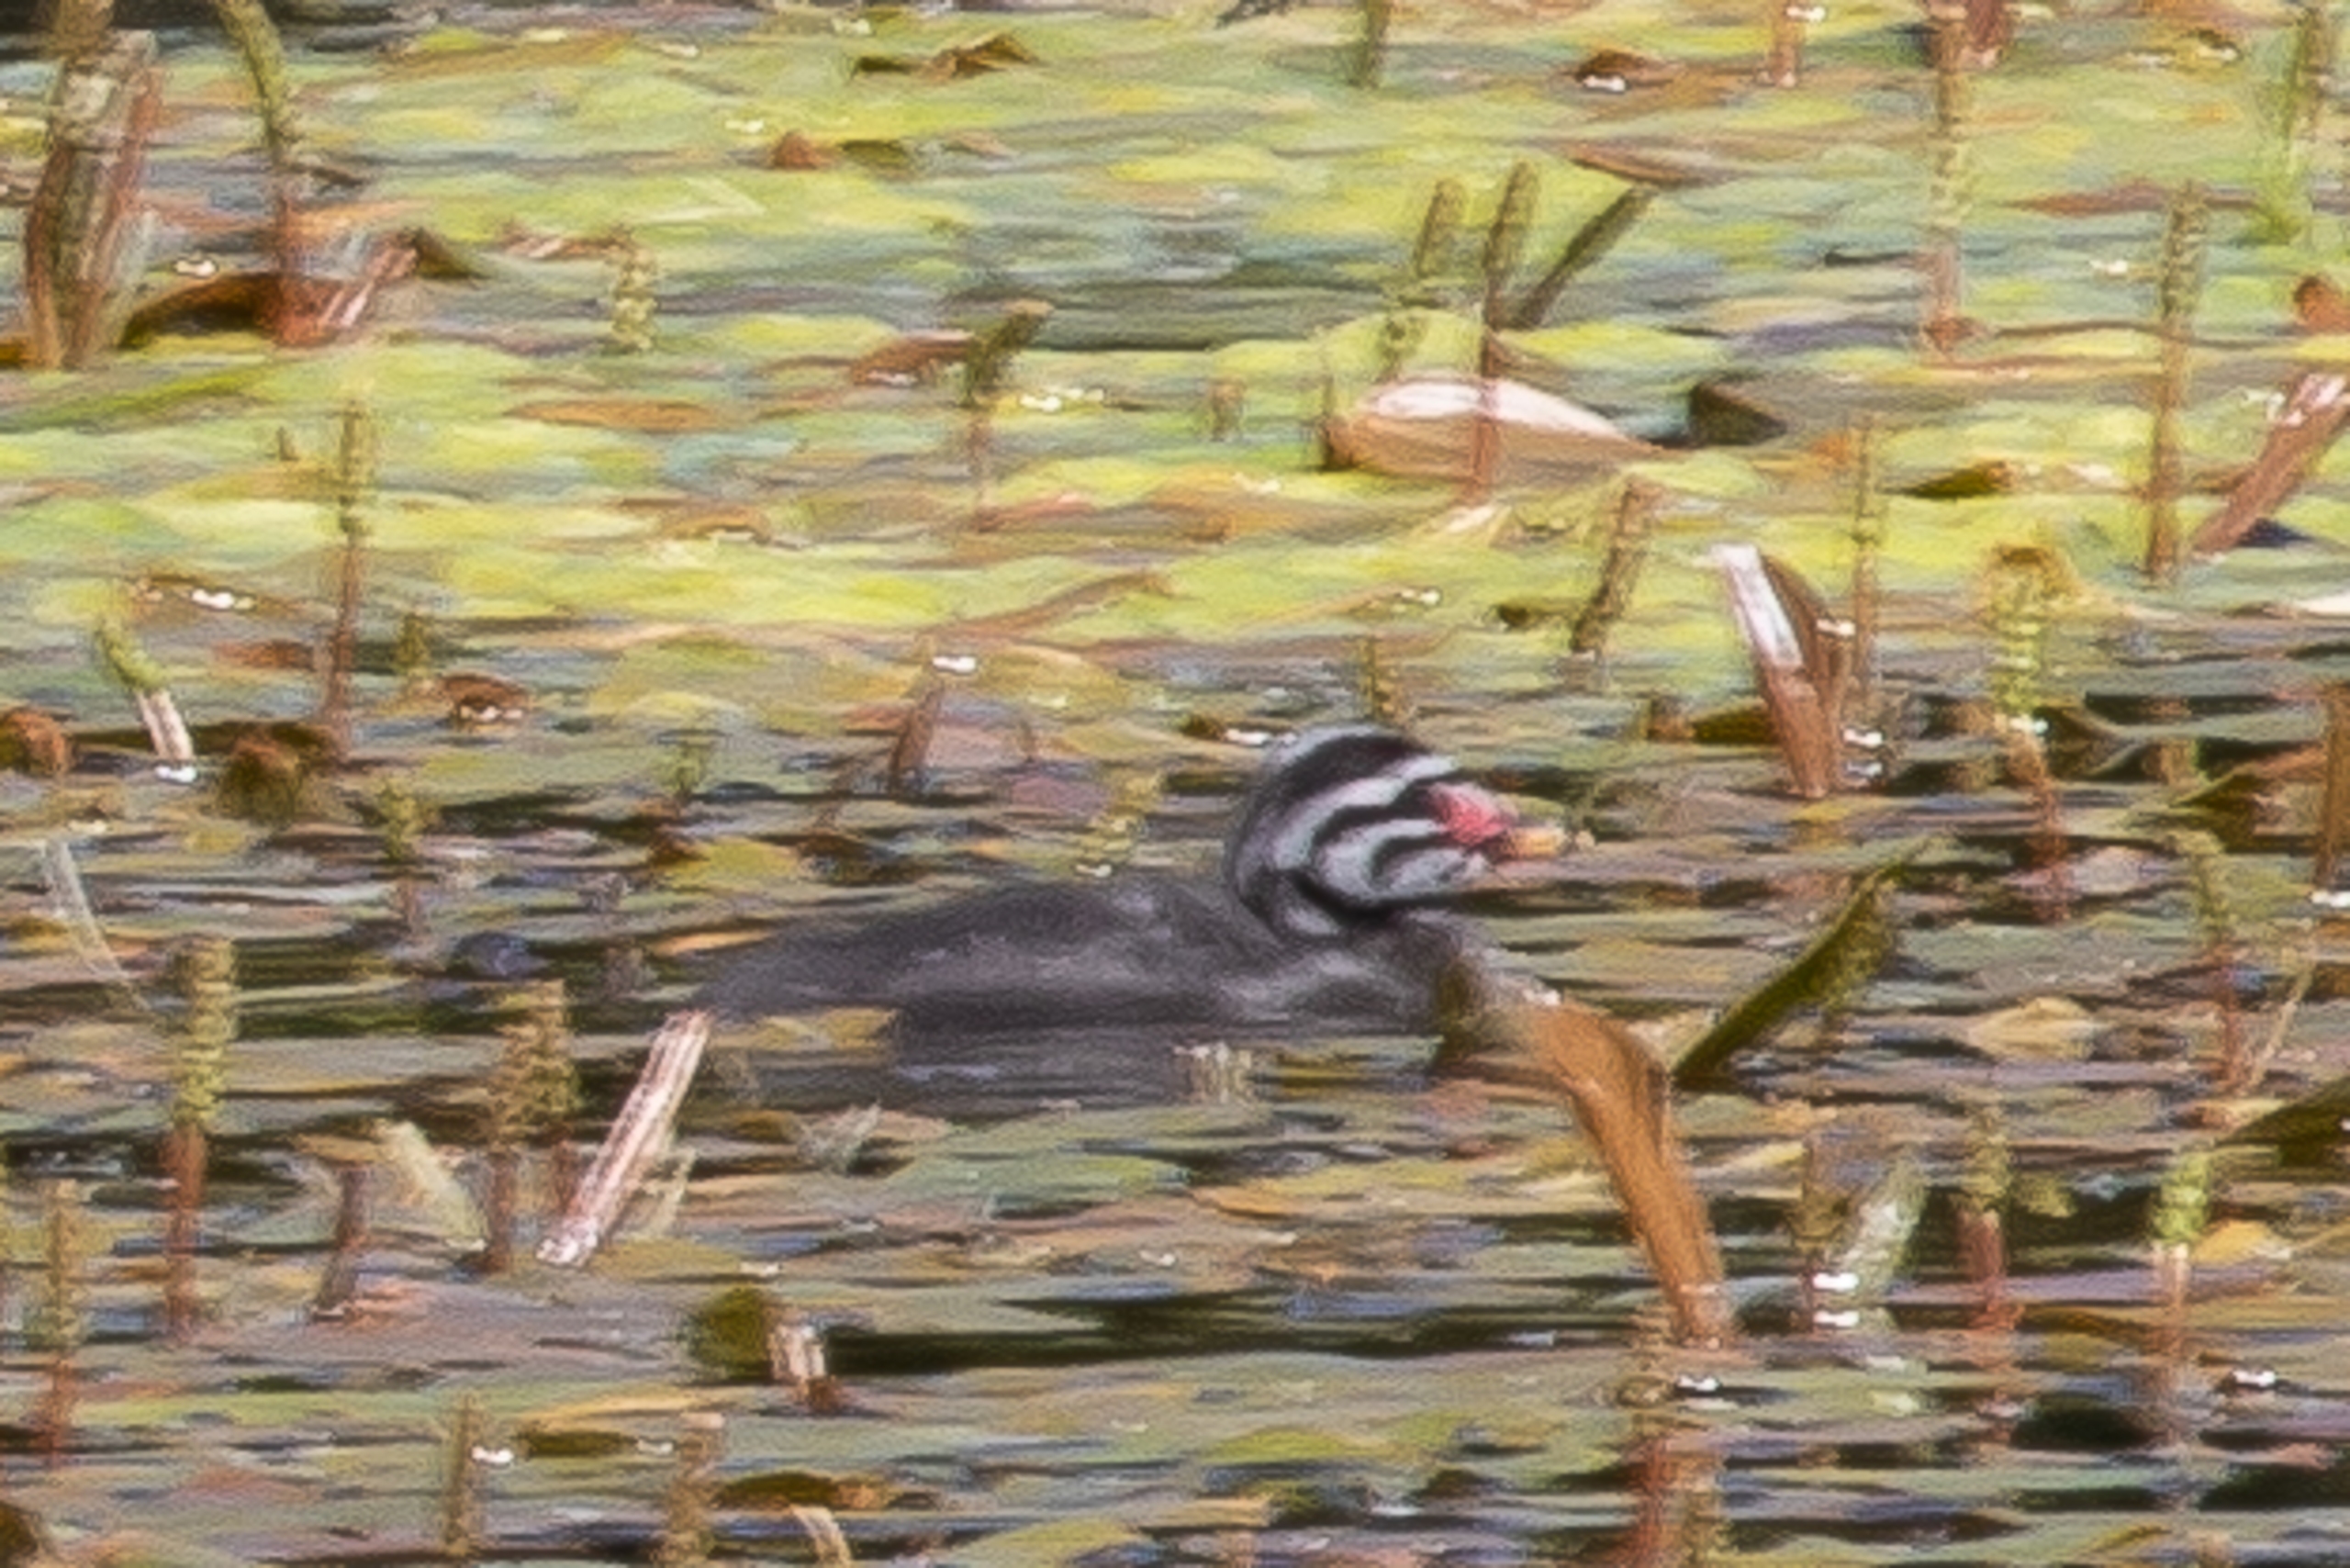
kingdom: Animalia
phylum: Chordata
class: Aves
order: Podicipediformes
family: Podicipedidae
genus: Podiceps
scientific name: Podiceps grisegena
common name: Gråstrubet lappedykker
